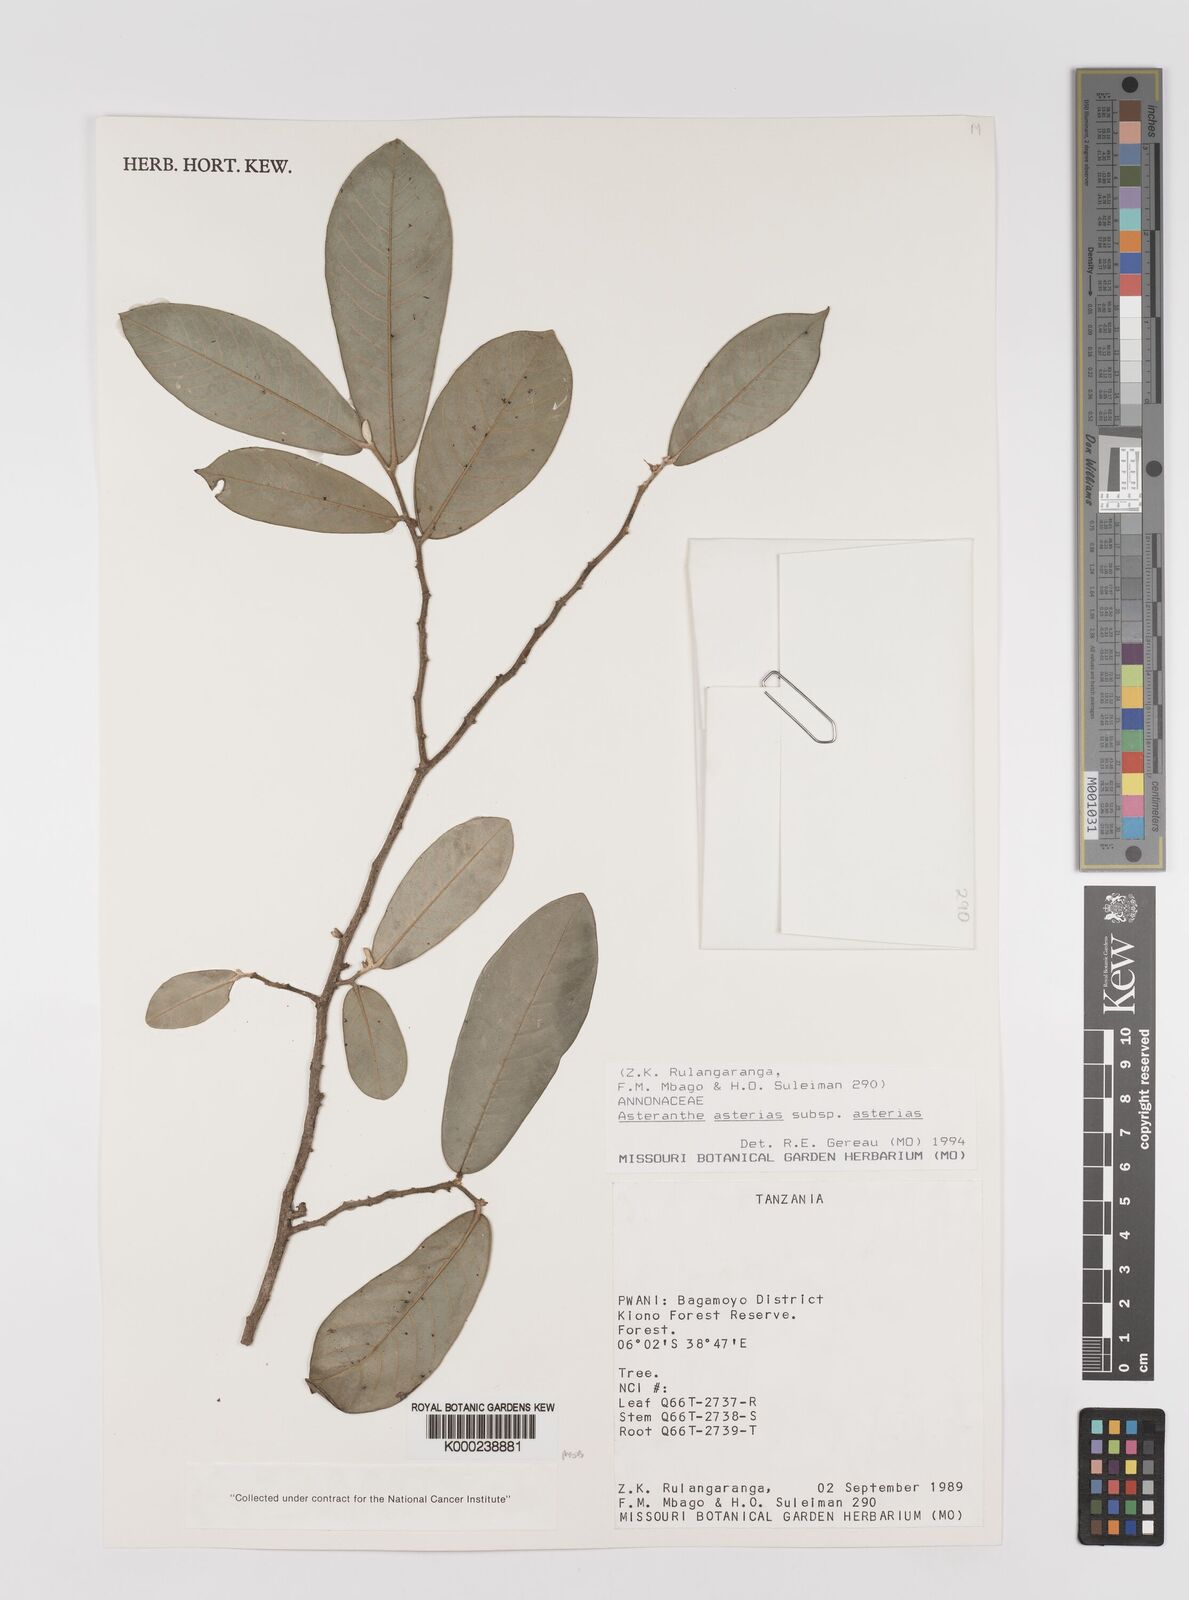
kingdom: Plantae
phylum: Tracheophyta
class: Magnoliopsida
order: Magnoliales
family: Annonaceae
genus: Asteranthe
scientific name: Asteranthe asterias
